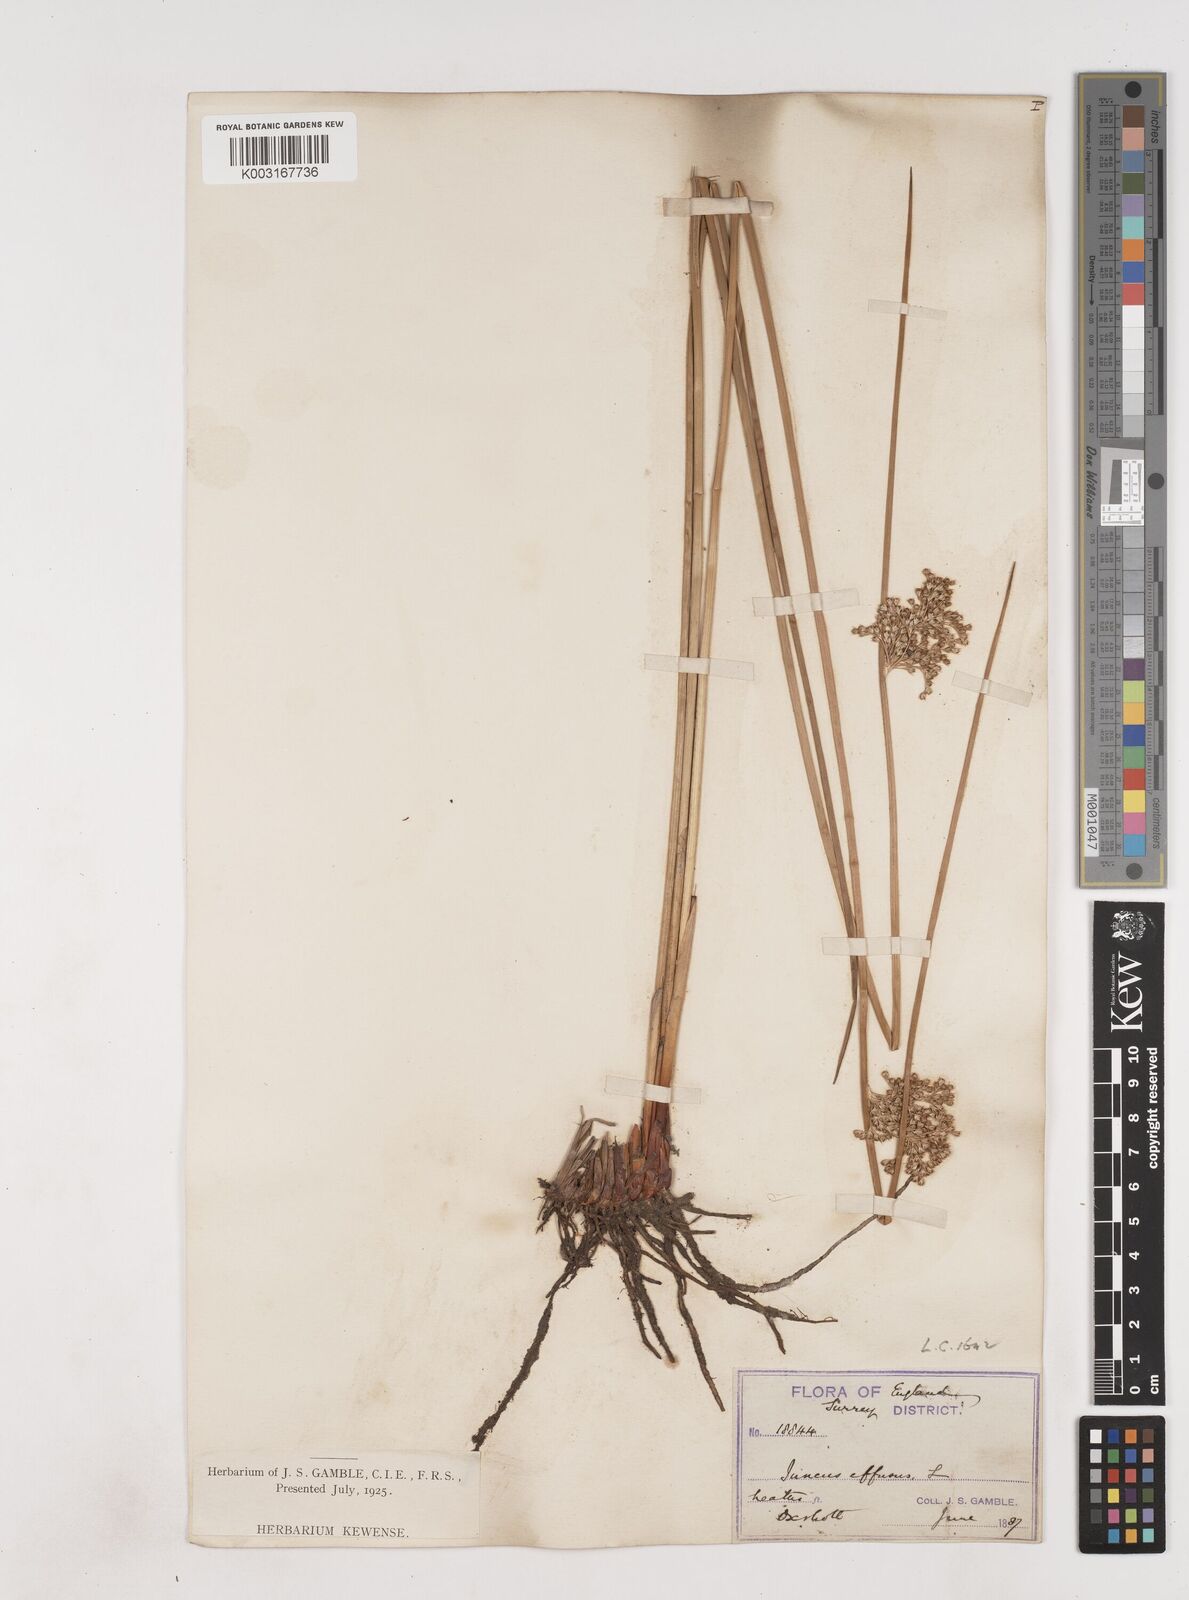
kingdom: Plantae
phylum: Tracheophyta
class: Liliopsida
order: Poales
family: Juncaceae
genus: Juncus
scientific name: Juncus effusus
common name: Soft rush
